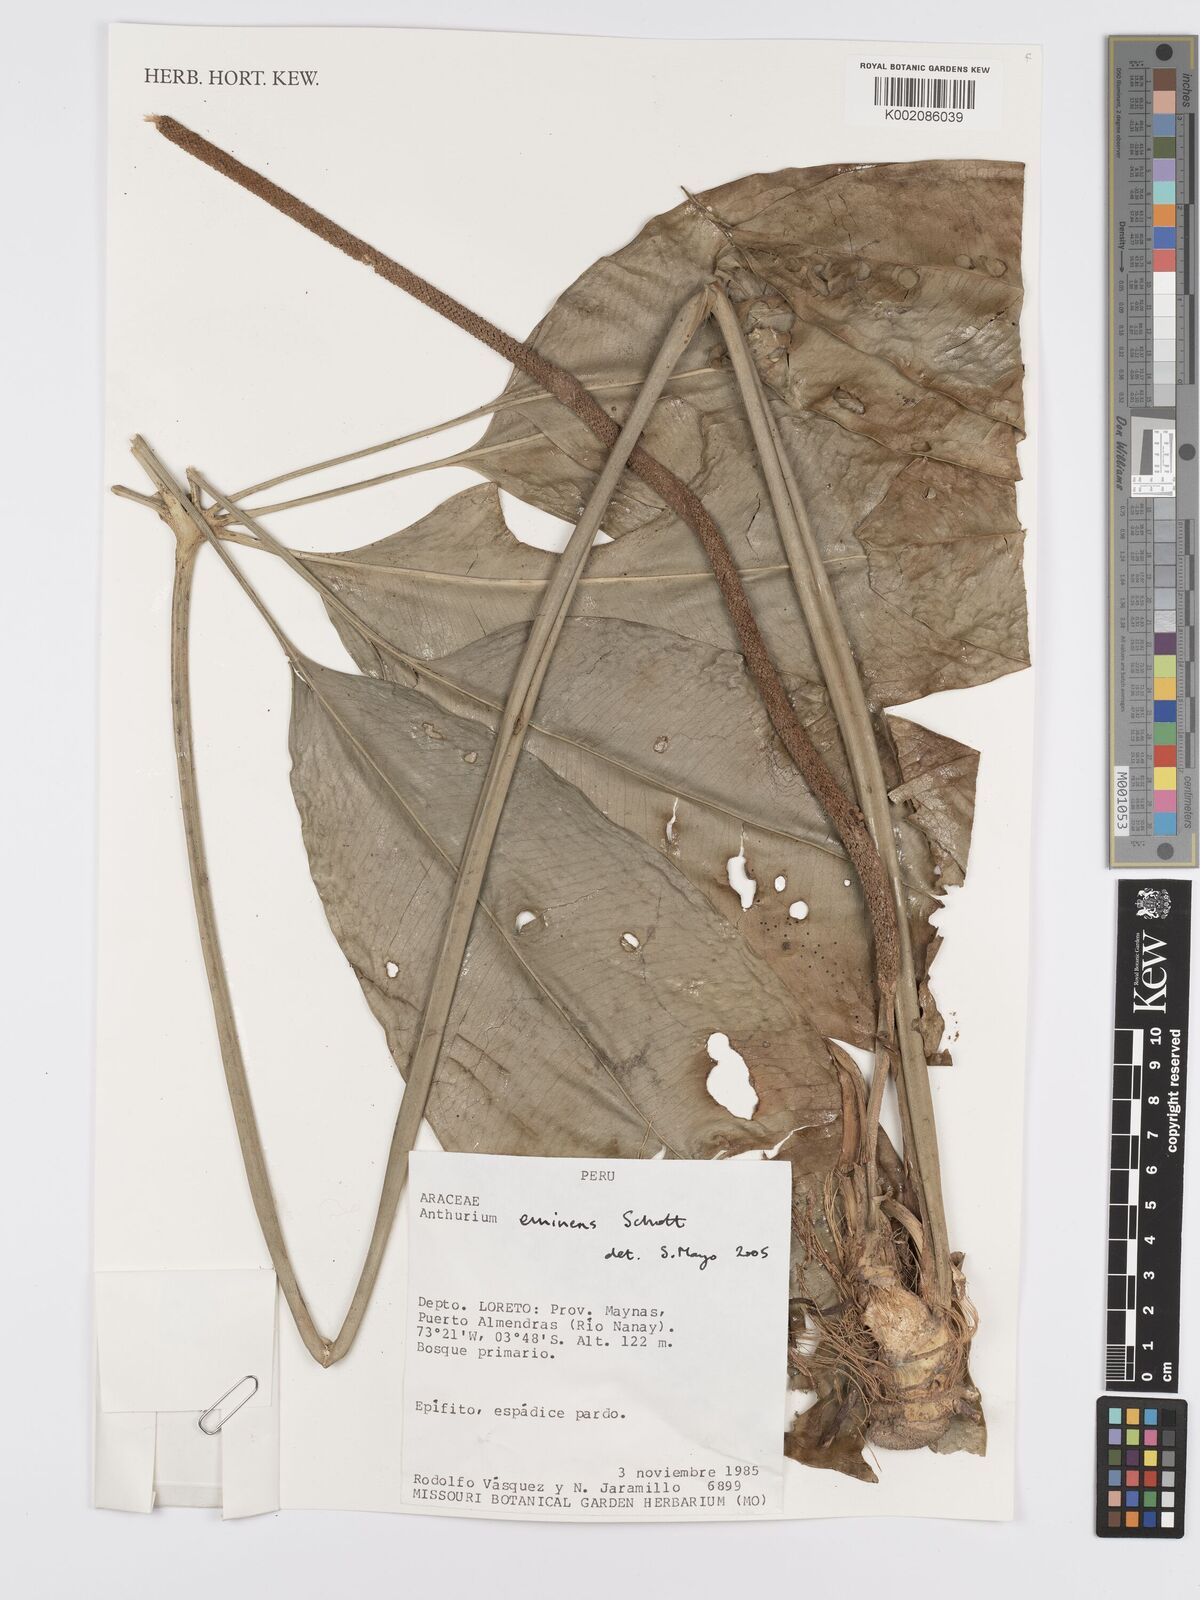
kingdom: Plantae
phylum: Tracheophyta
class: Liliopsida
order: Alismatales
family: Araceae
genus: Anthurium
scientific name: Anthurium eminens
